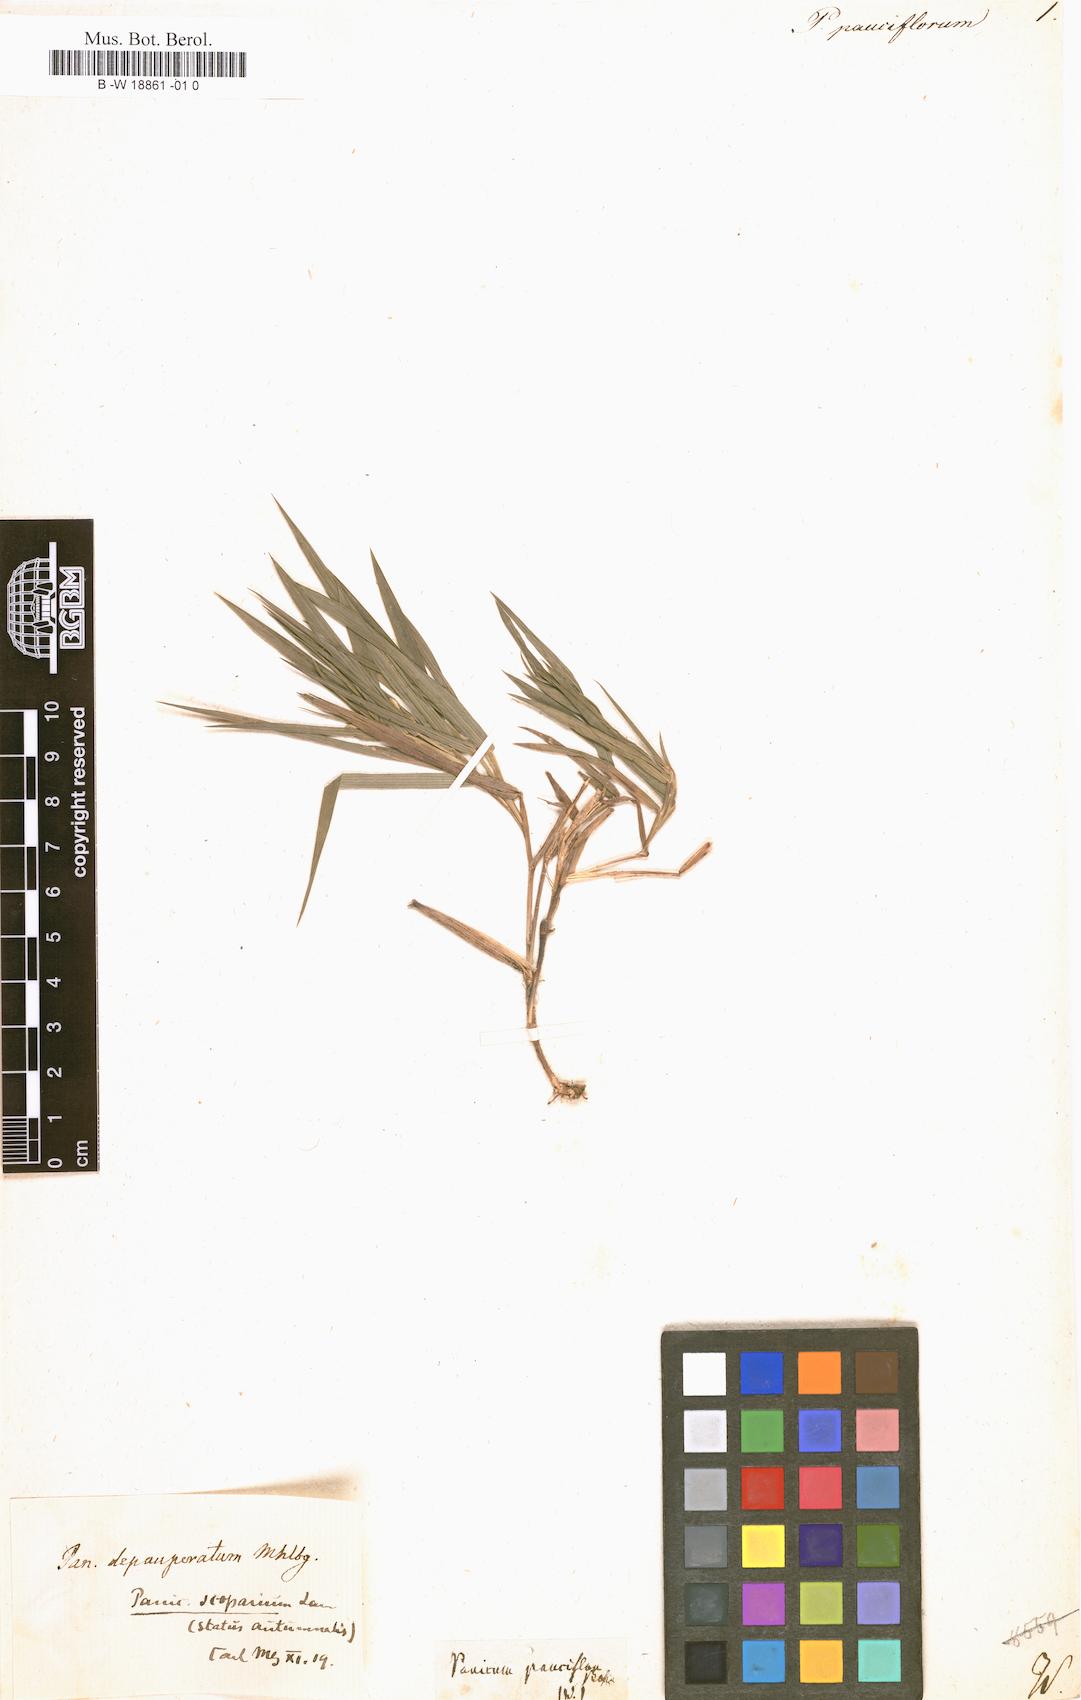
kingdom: Plantae
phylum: Tracheophyta
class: Liliopsida
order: Poales
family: Poaceae
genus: Panicum
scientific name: Panicum pauciflorum
